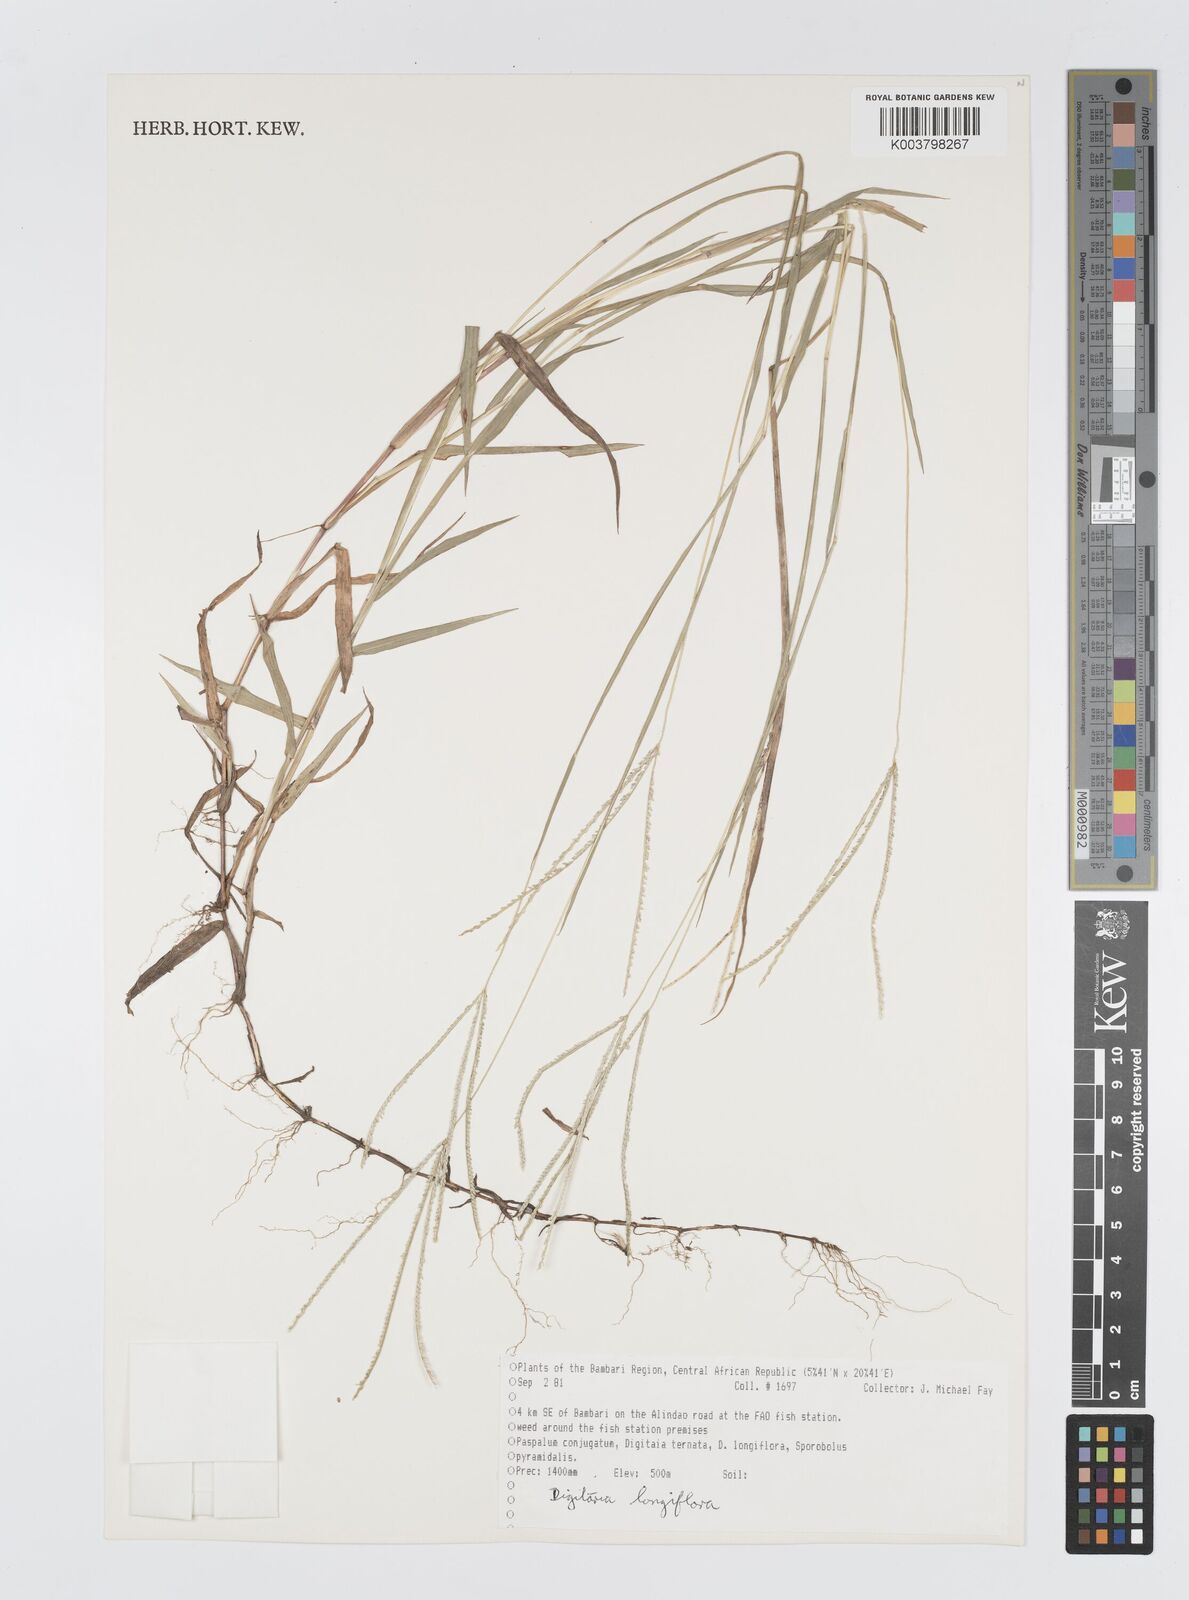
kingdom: Plantae
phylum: Tracheophyta
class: Liliopsida
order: Poales
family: Poaceae
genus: Digitaria
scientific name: Digitaria longiflora
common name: Wire crabgrass
